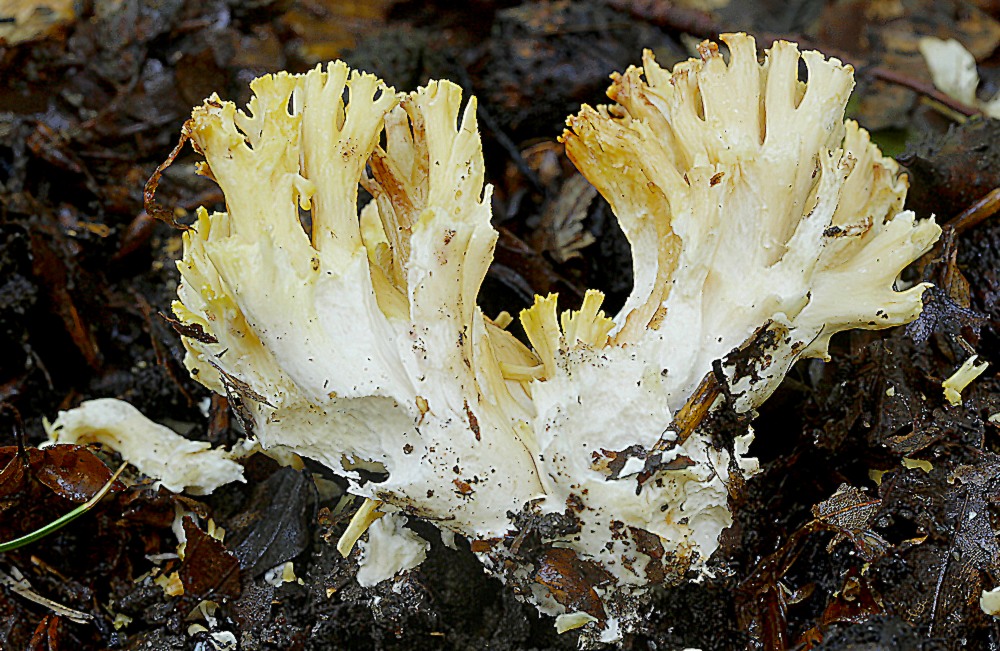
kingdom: Fungi
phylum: Basidiomycota
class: Agaricomycetes
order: Gomphales
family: Gomphaceae
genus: Ramaria
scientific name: Ramaria krieglsteineri
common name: smalsporet koralsvamp
